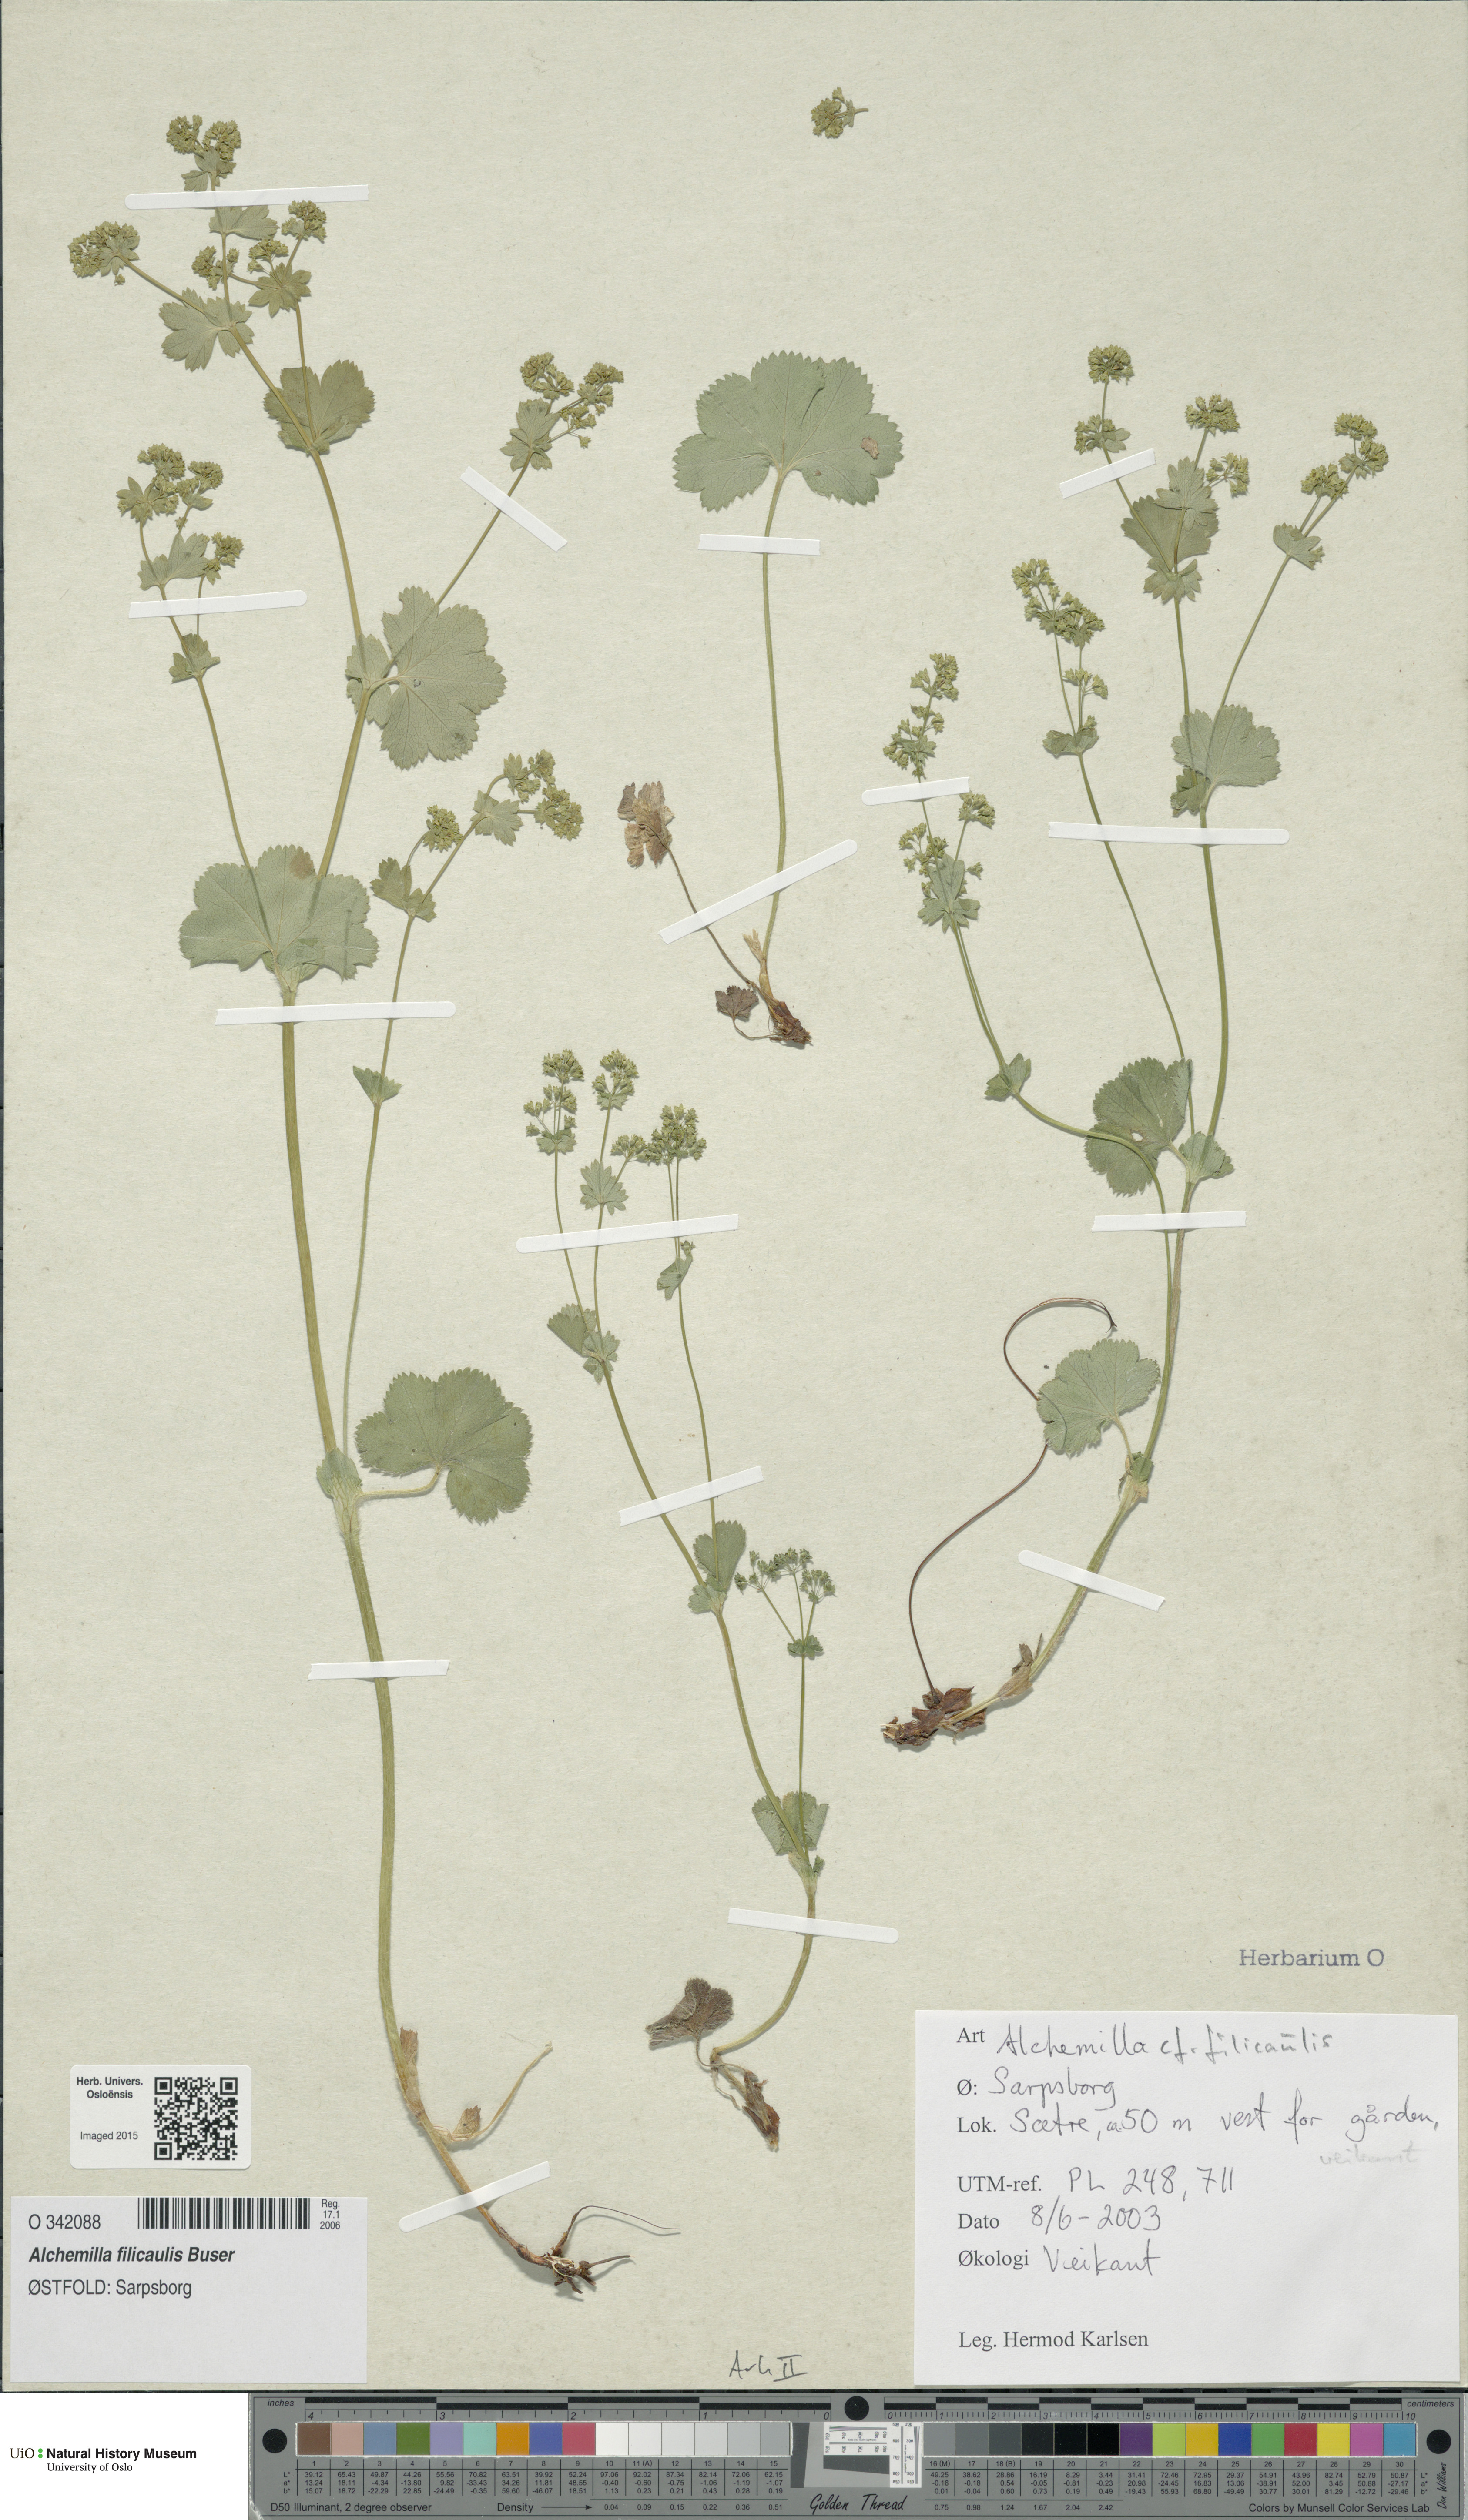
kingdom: Plantae
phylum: Tracheophyta
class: Magnoliopsida
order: Rosales
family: Rosaceae
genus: Alchemilla
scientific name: Alchemilla filicaulis
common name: Hairy lady's-mantle
